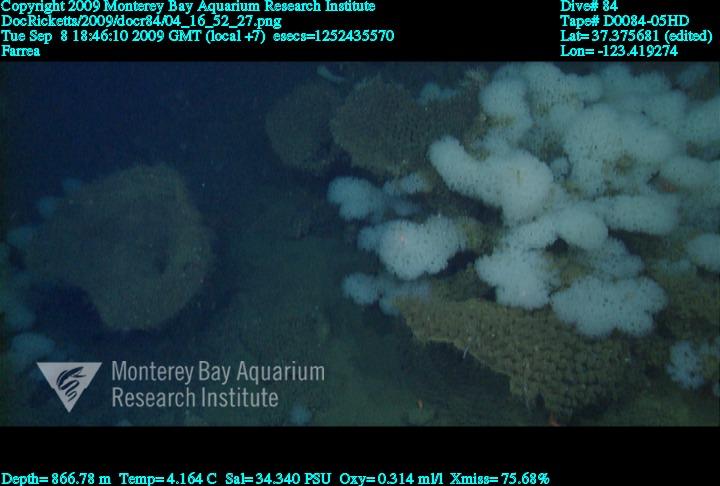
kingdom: Animalia
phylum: Porifera
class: Hexactinellida
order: Sceptrulophora
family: Farreidae
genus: Farrea
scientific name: Farrea
